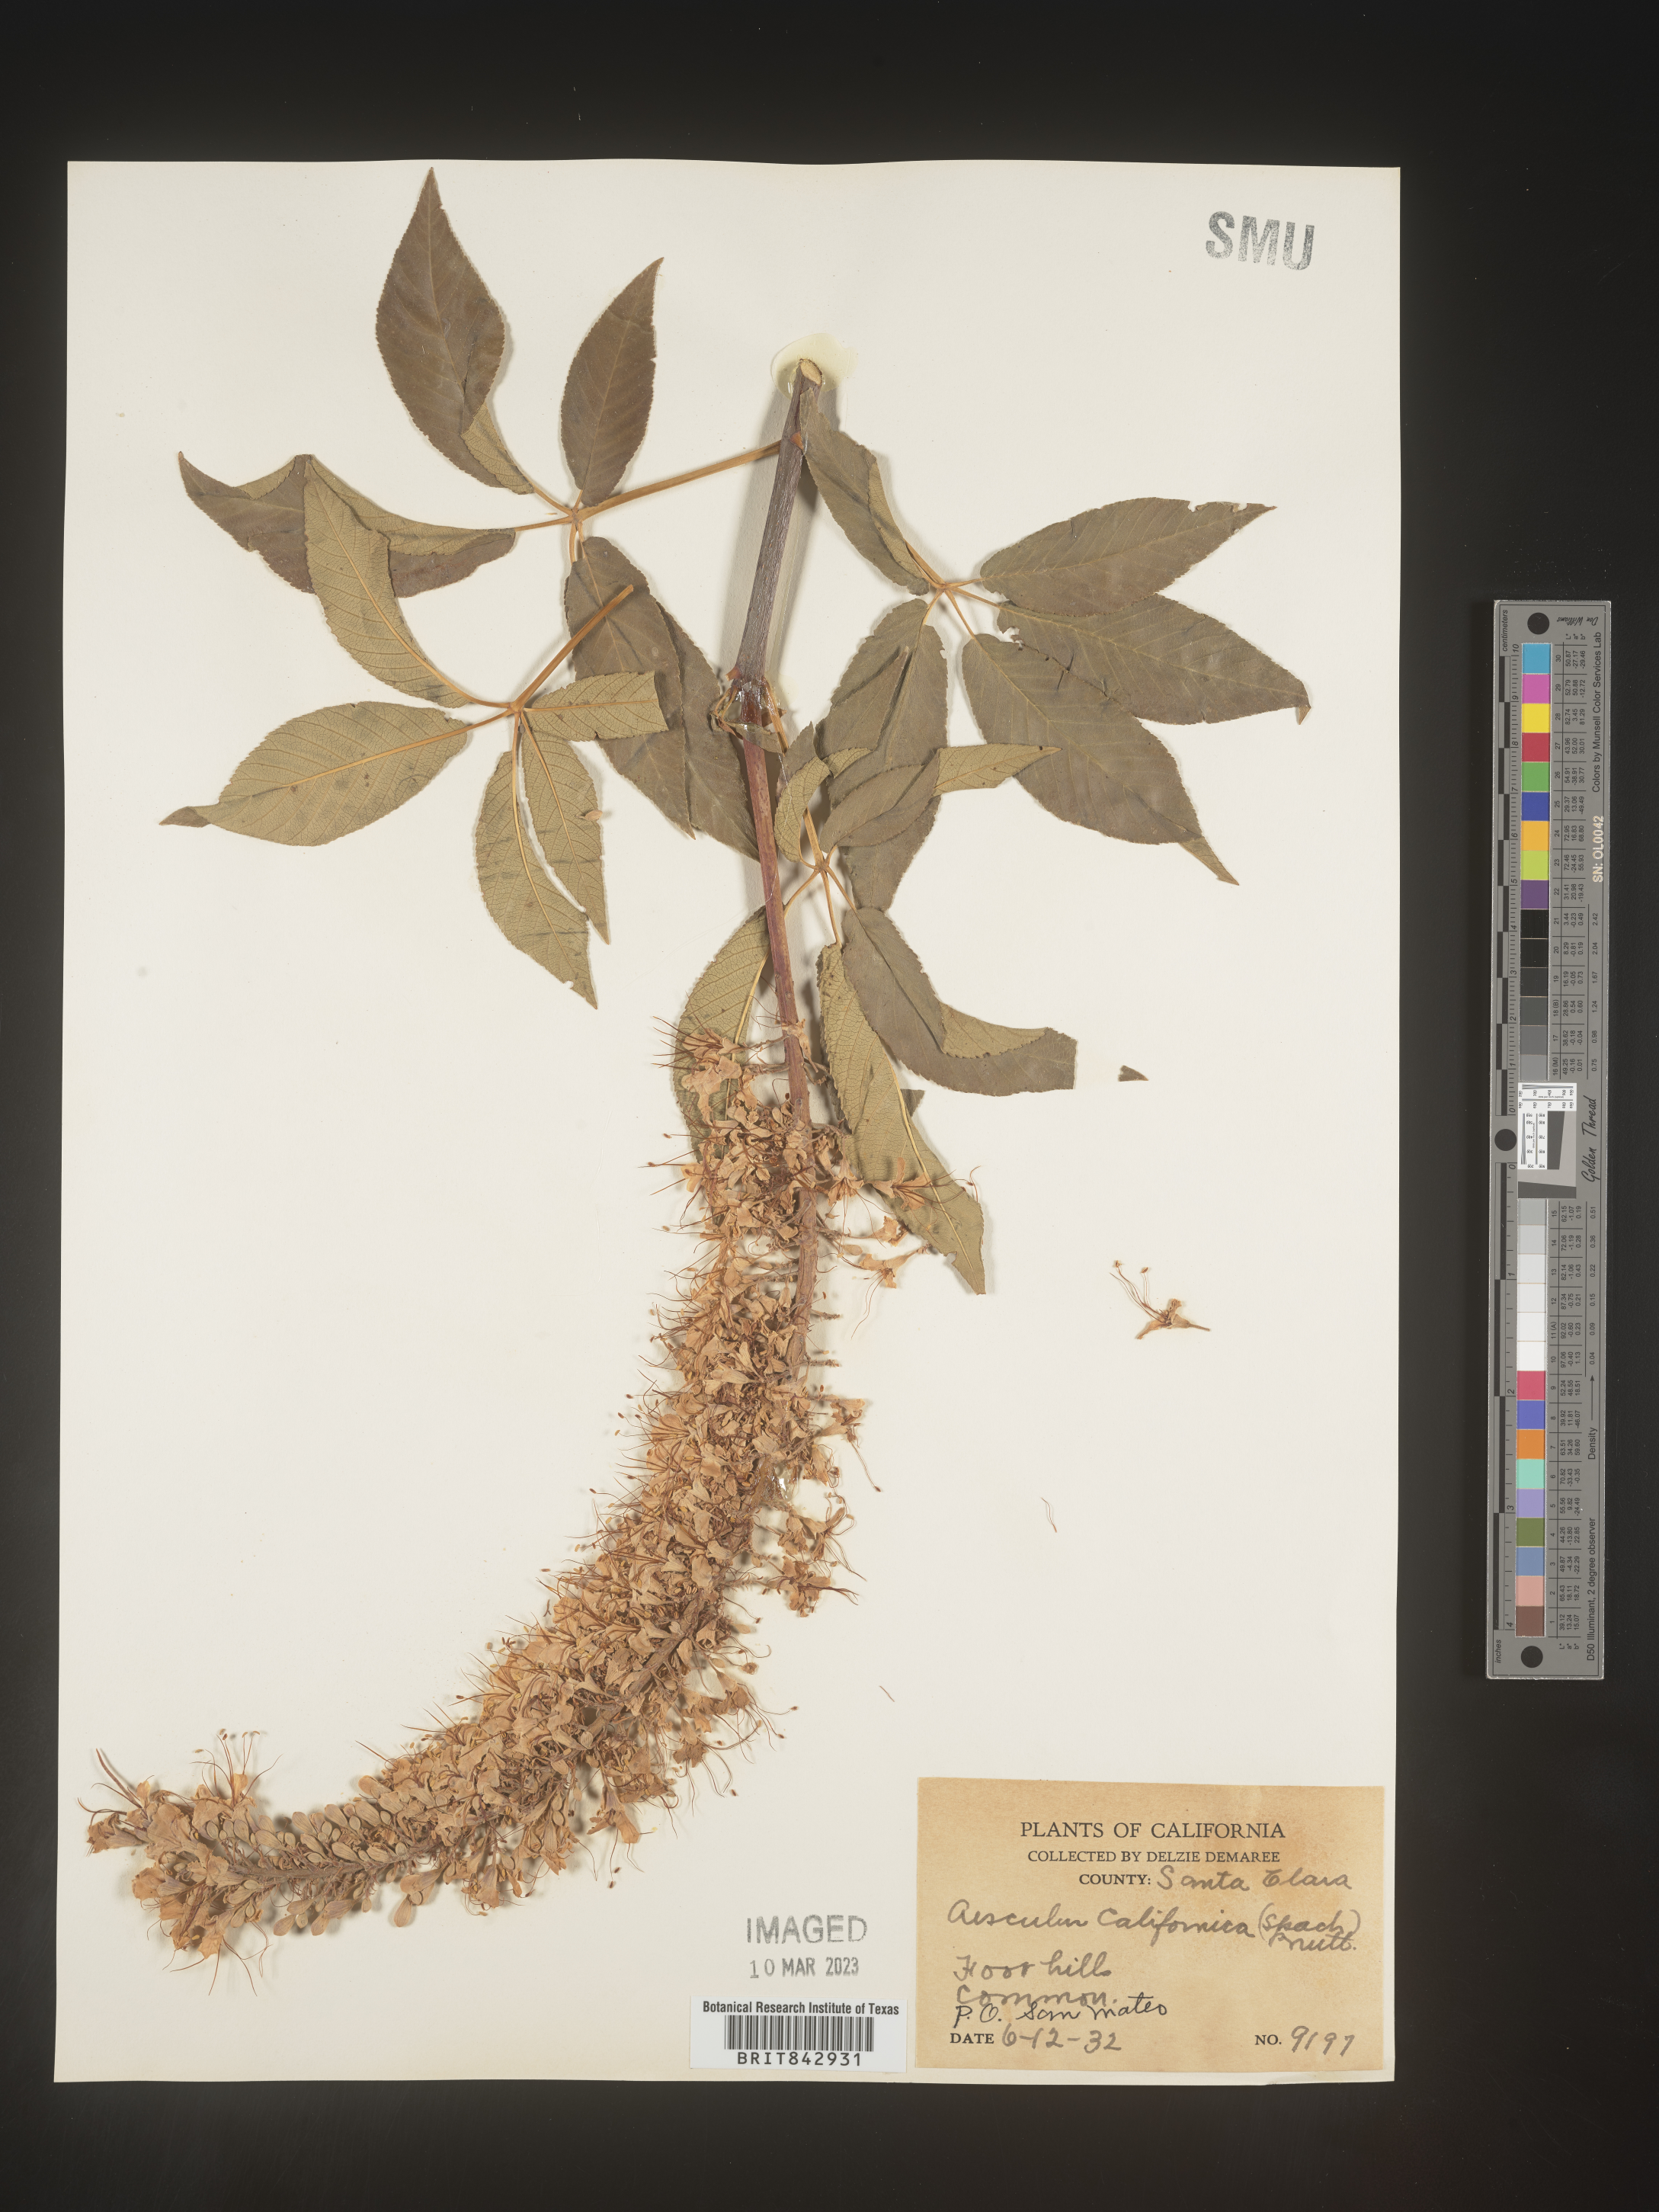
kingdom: Plantae
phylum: Tracheophyta
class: Magnoliopsida
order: Sapindales
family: Sapindaceae
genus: Aesculus
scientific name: Aesculus
